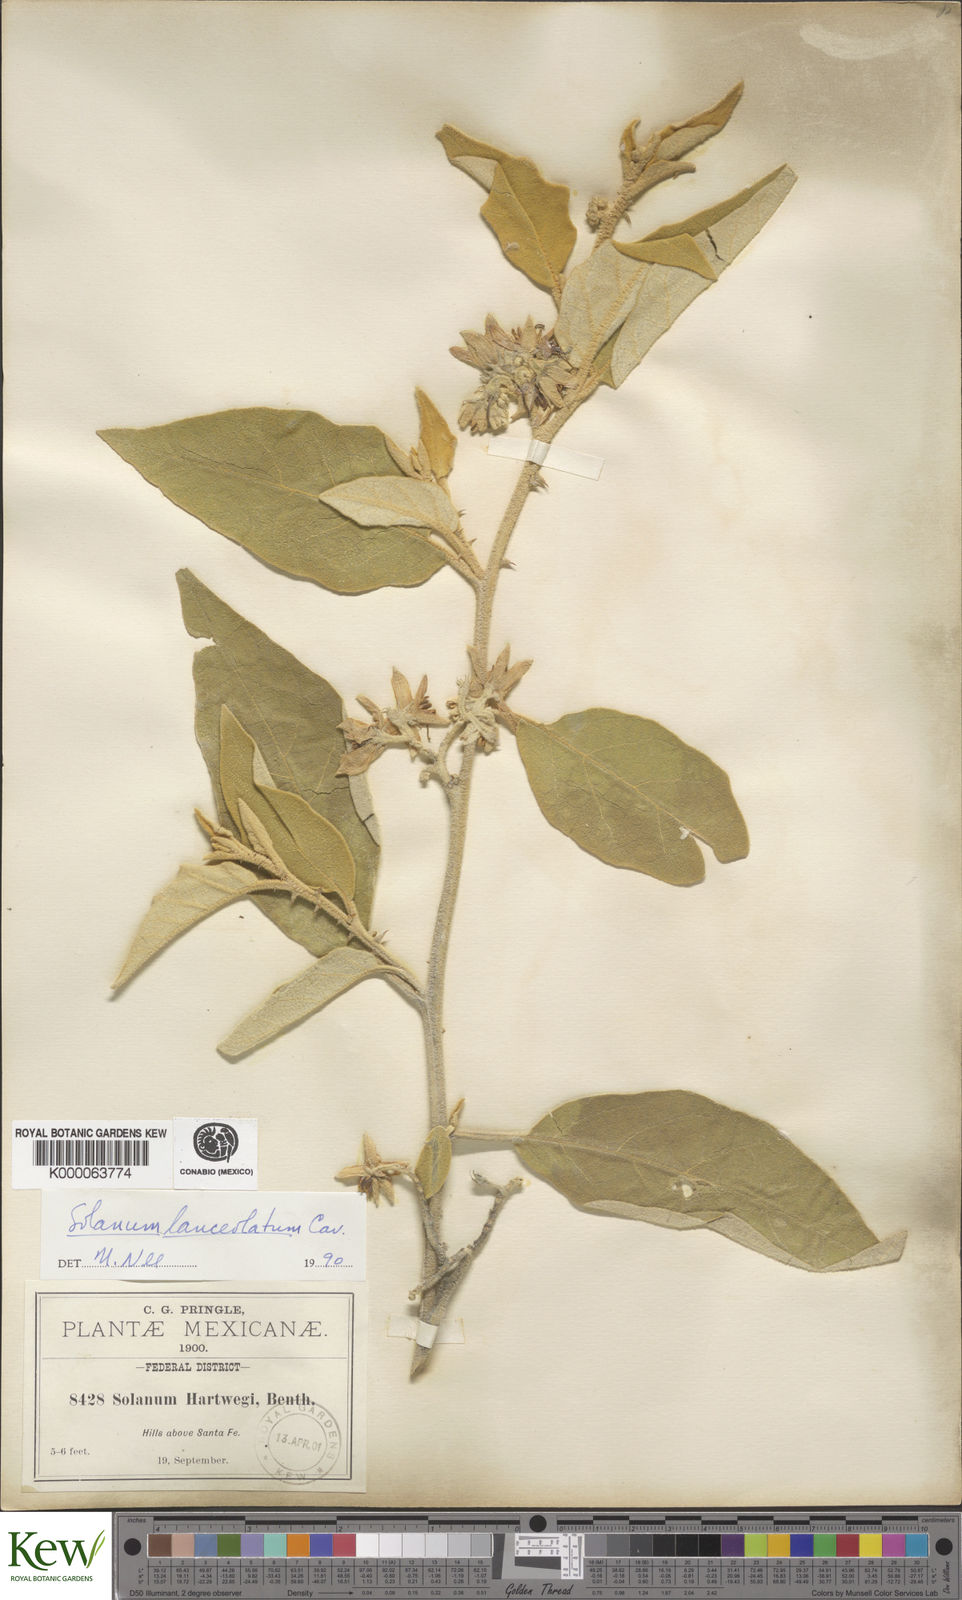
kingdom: Plantae
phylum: Tracheophyta
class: Magnoliopsida
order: Solanales
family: Solanaceae
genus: Solanum
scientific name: Solanum lanceolatum
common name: Orangeberry nightshade
